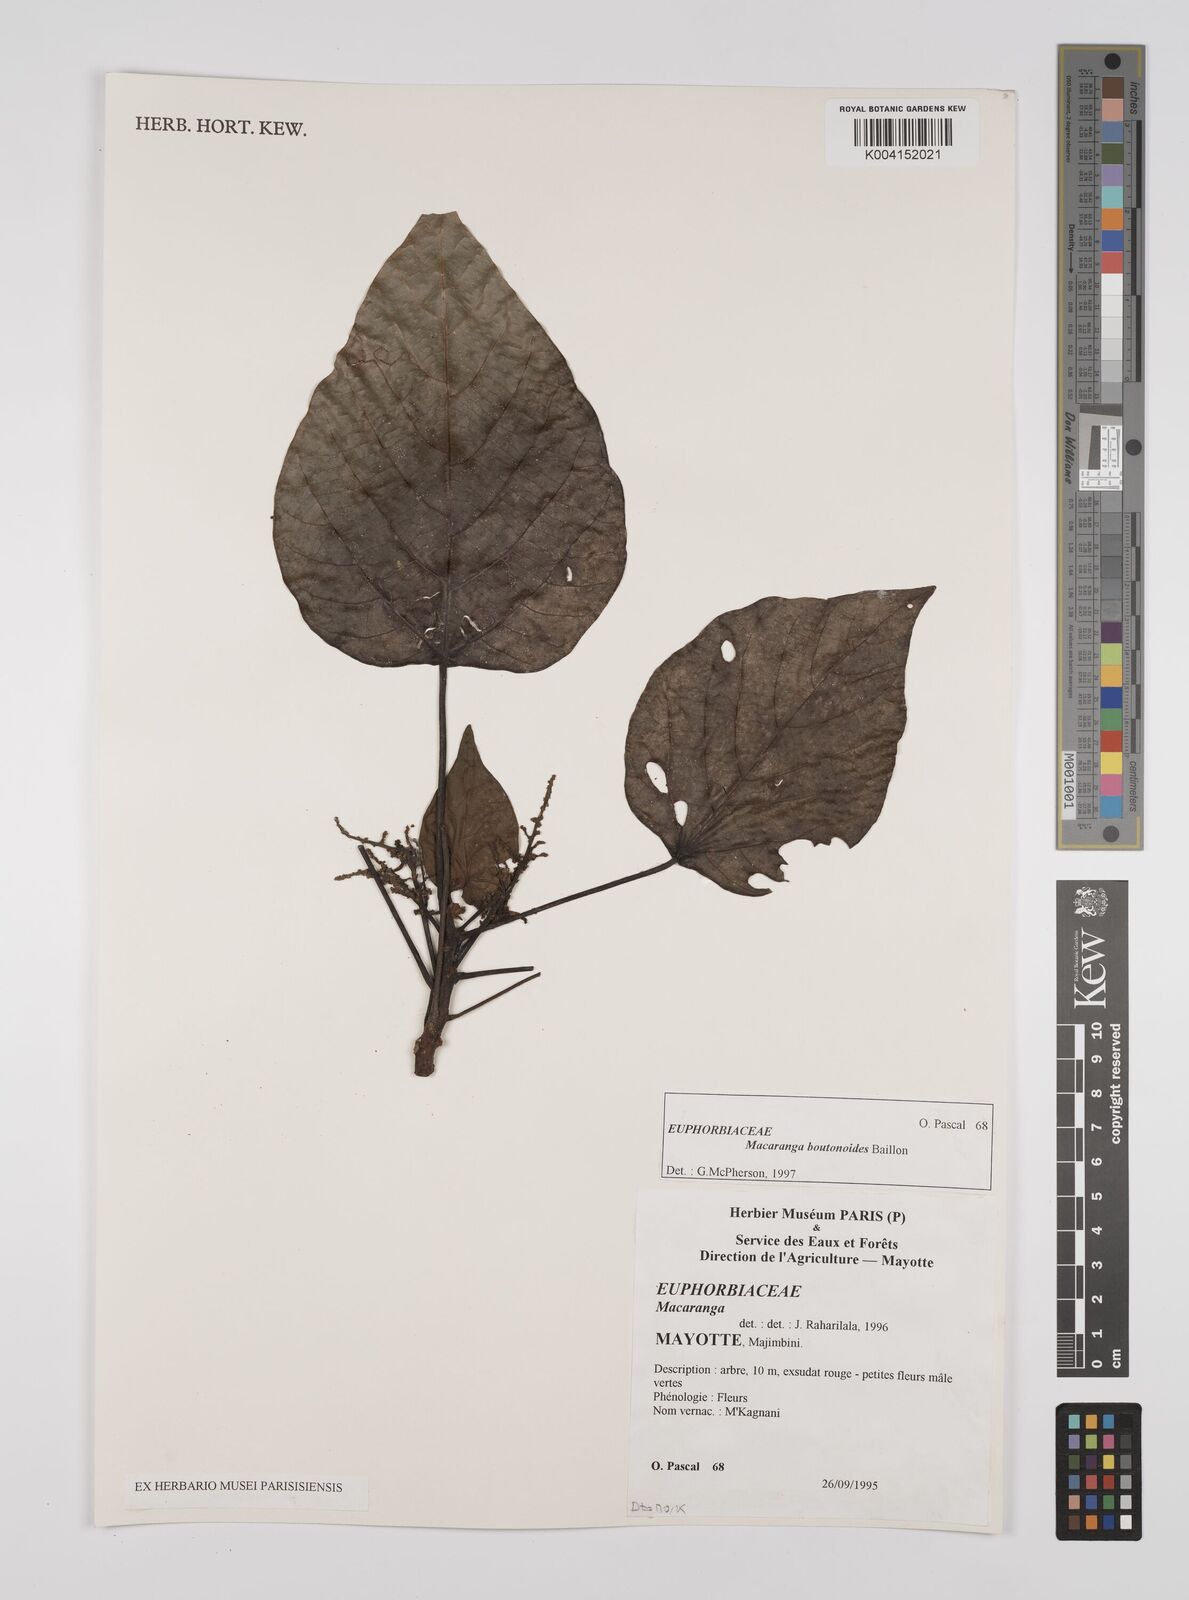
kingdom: Plantae
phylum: Tracheophyta
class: Magnoliopsida
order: Malpighiales
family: Euphorbiaceae
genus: Macaranga
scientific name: Macaranga boutonioides
